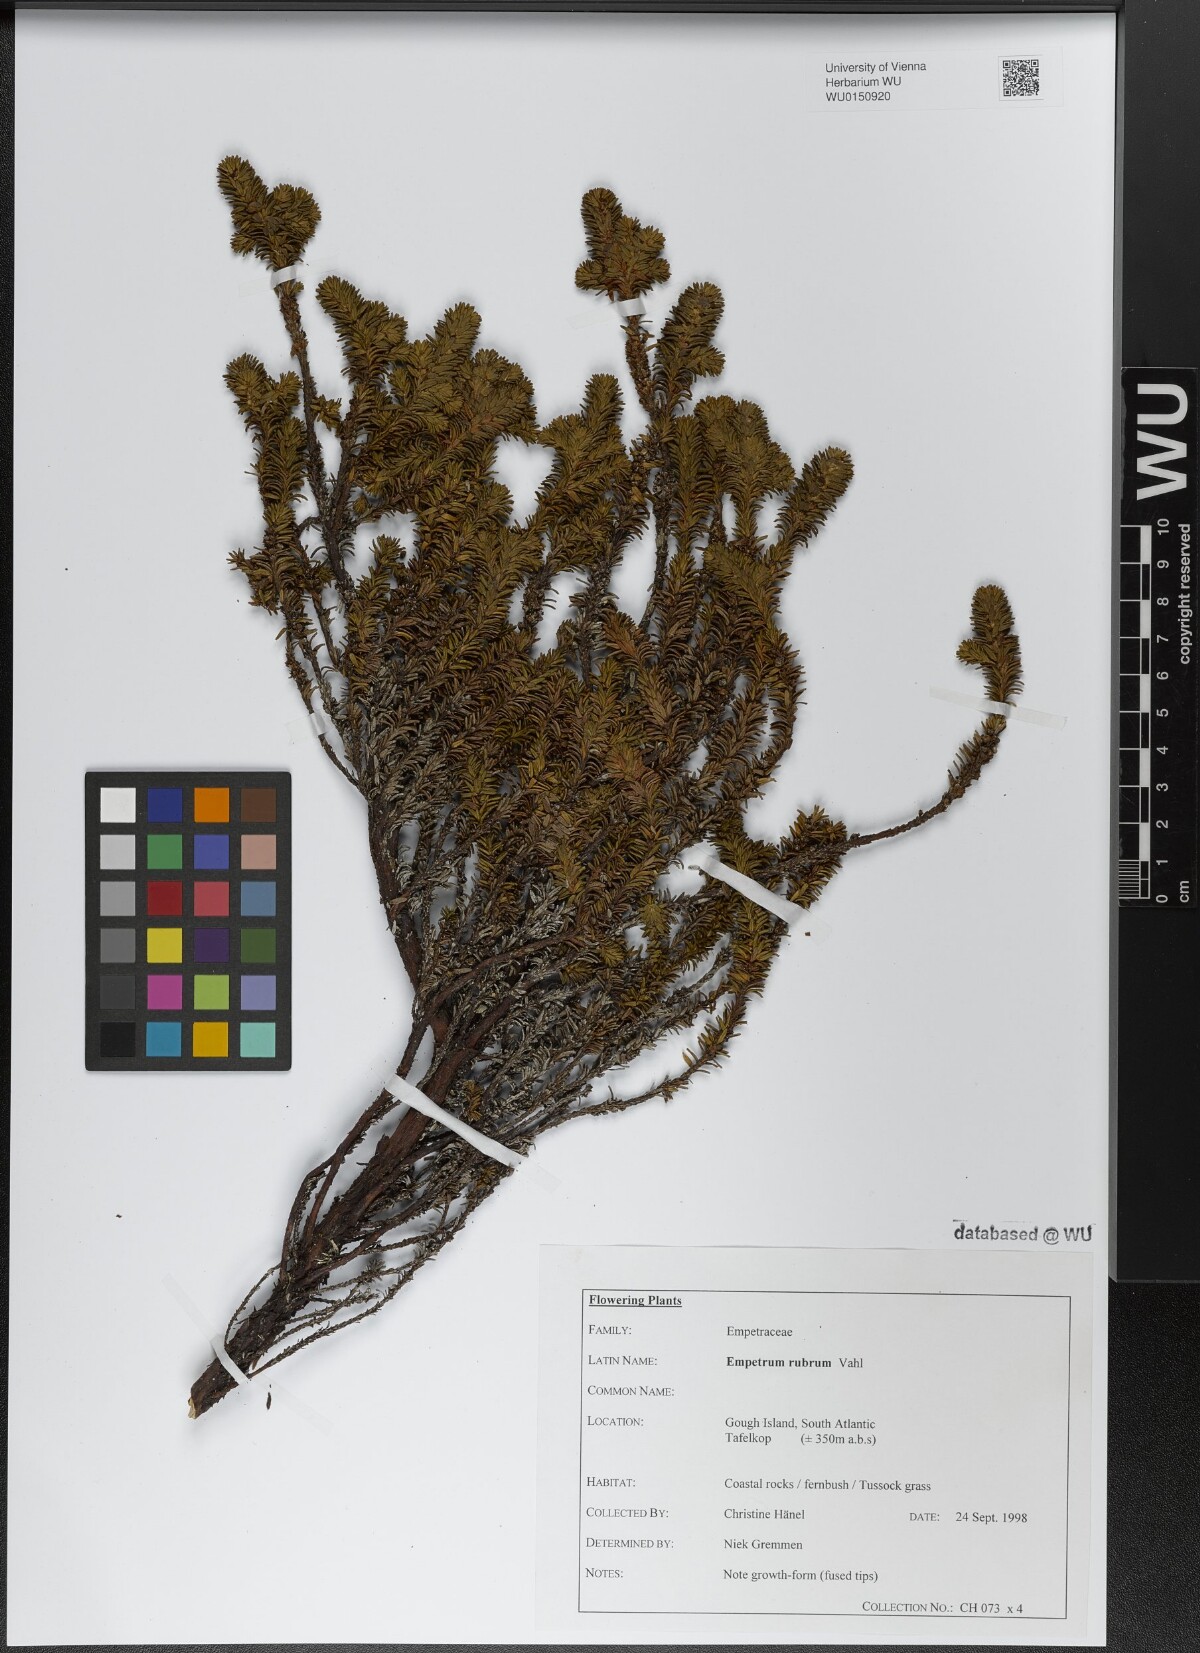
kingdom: Plantae
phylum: Tracheophyta
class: Magnoliopsida
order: Ericales
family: Ericaceae
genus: Empetrum
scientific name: Empetrum rubrum
